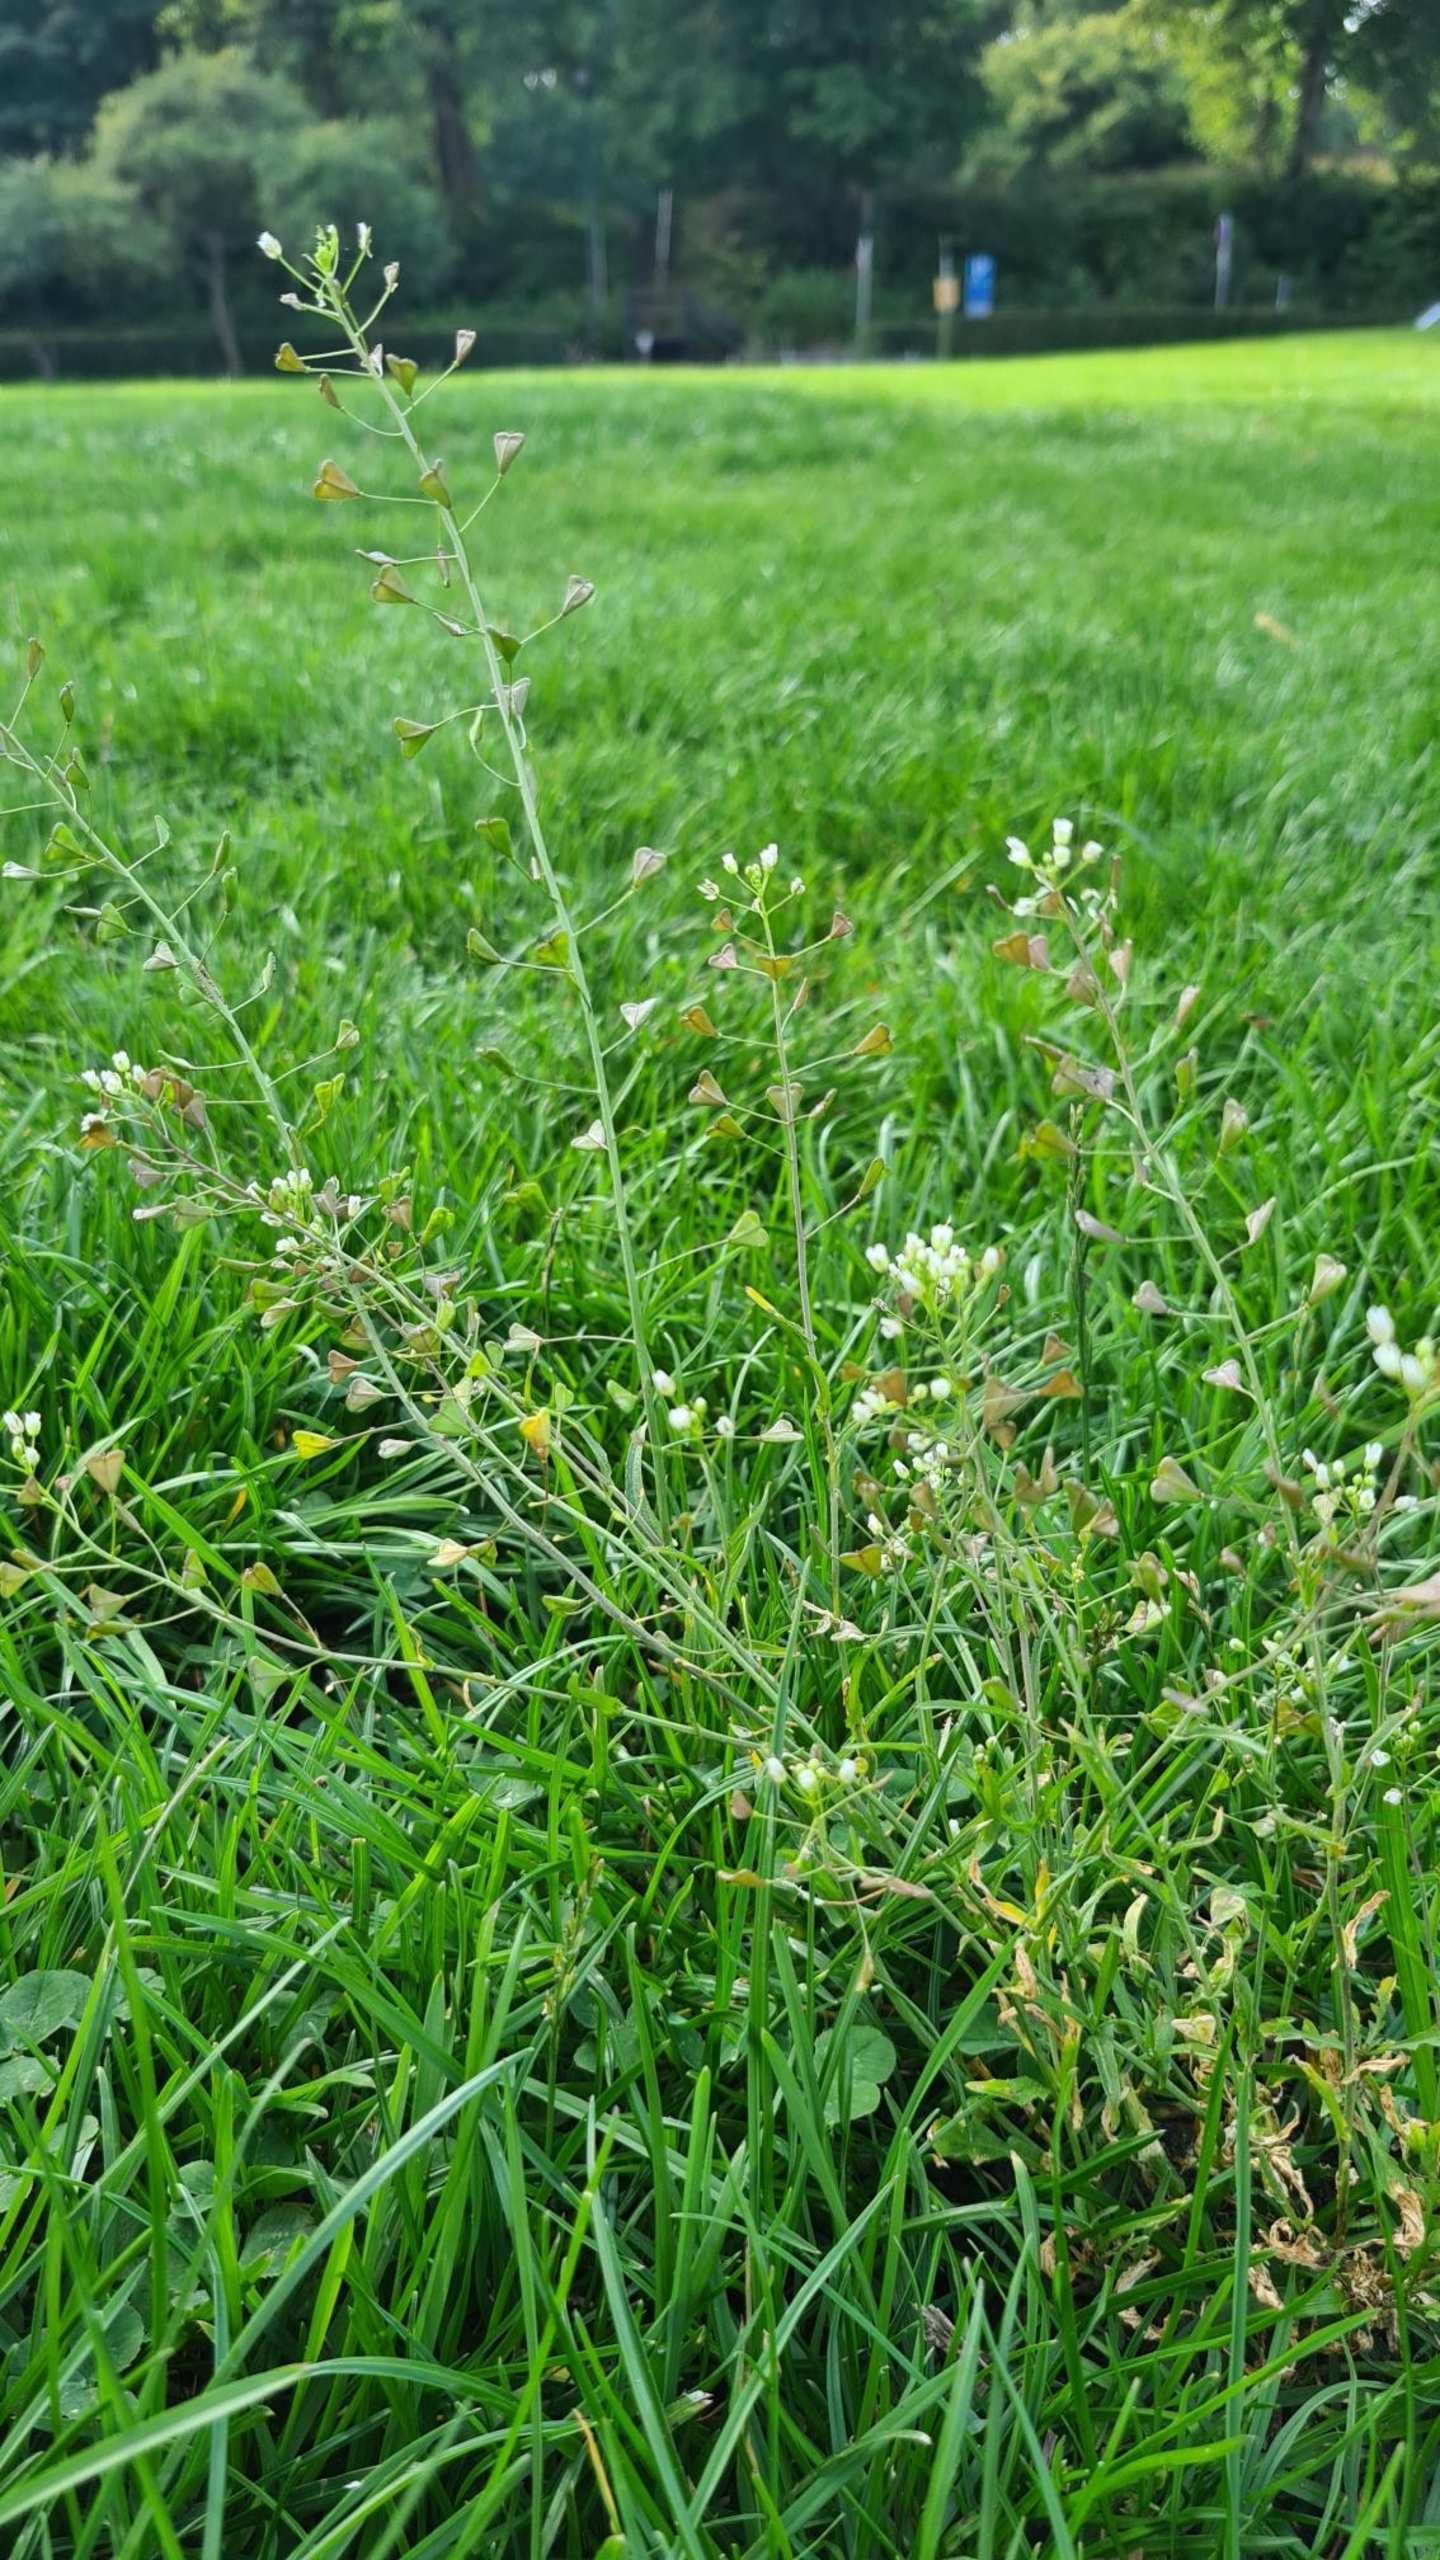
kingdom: Plantae
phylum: Tracheophyta
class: Magnoliopsida
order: Brassicales
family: Brassicaceae
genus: Capsella
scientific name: Capsella bursa-pastoris
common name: Hyrdetaske
